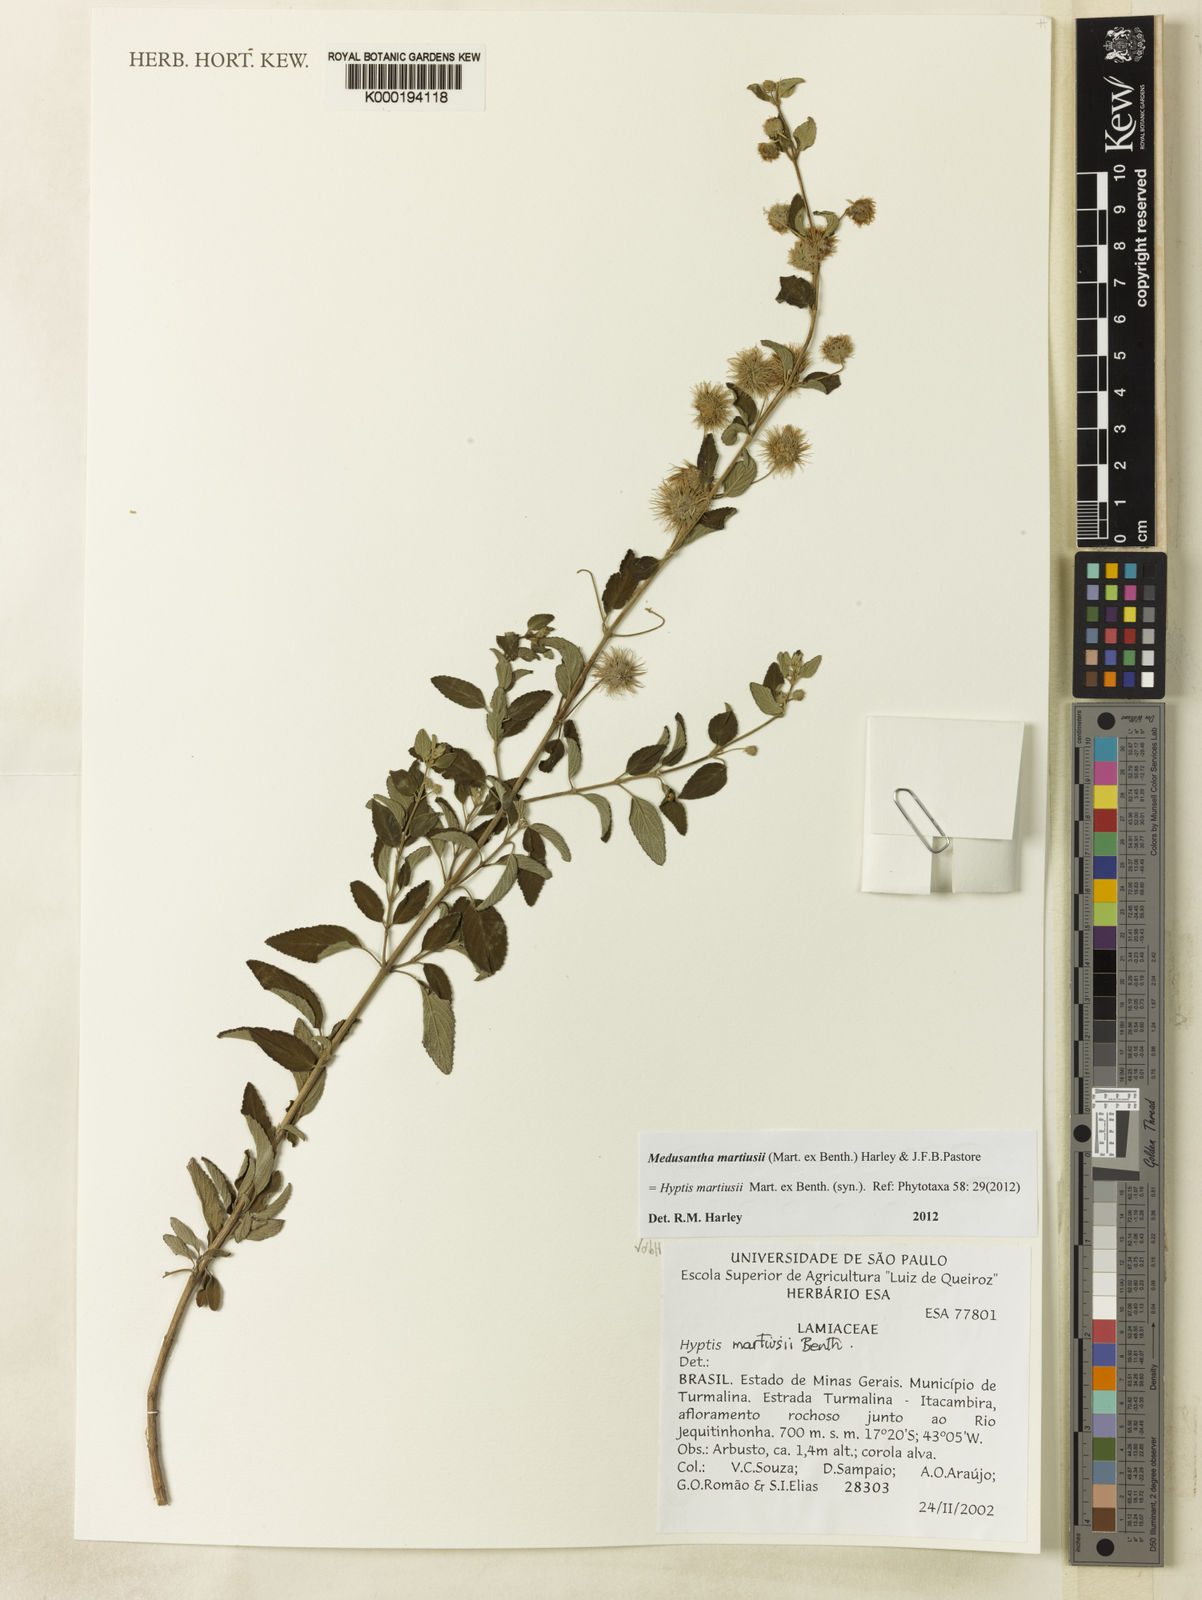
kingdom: Plantae
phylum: Tracheophyta
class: Magnoliopsida
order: Lamiales
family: Lamiaceae
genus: Medusantha
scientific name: Medusantha martiusii
